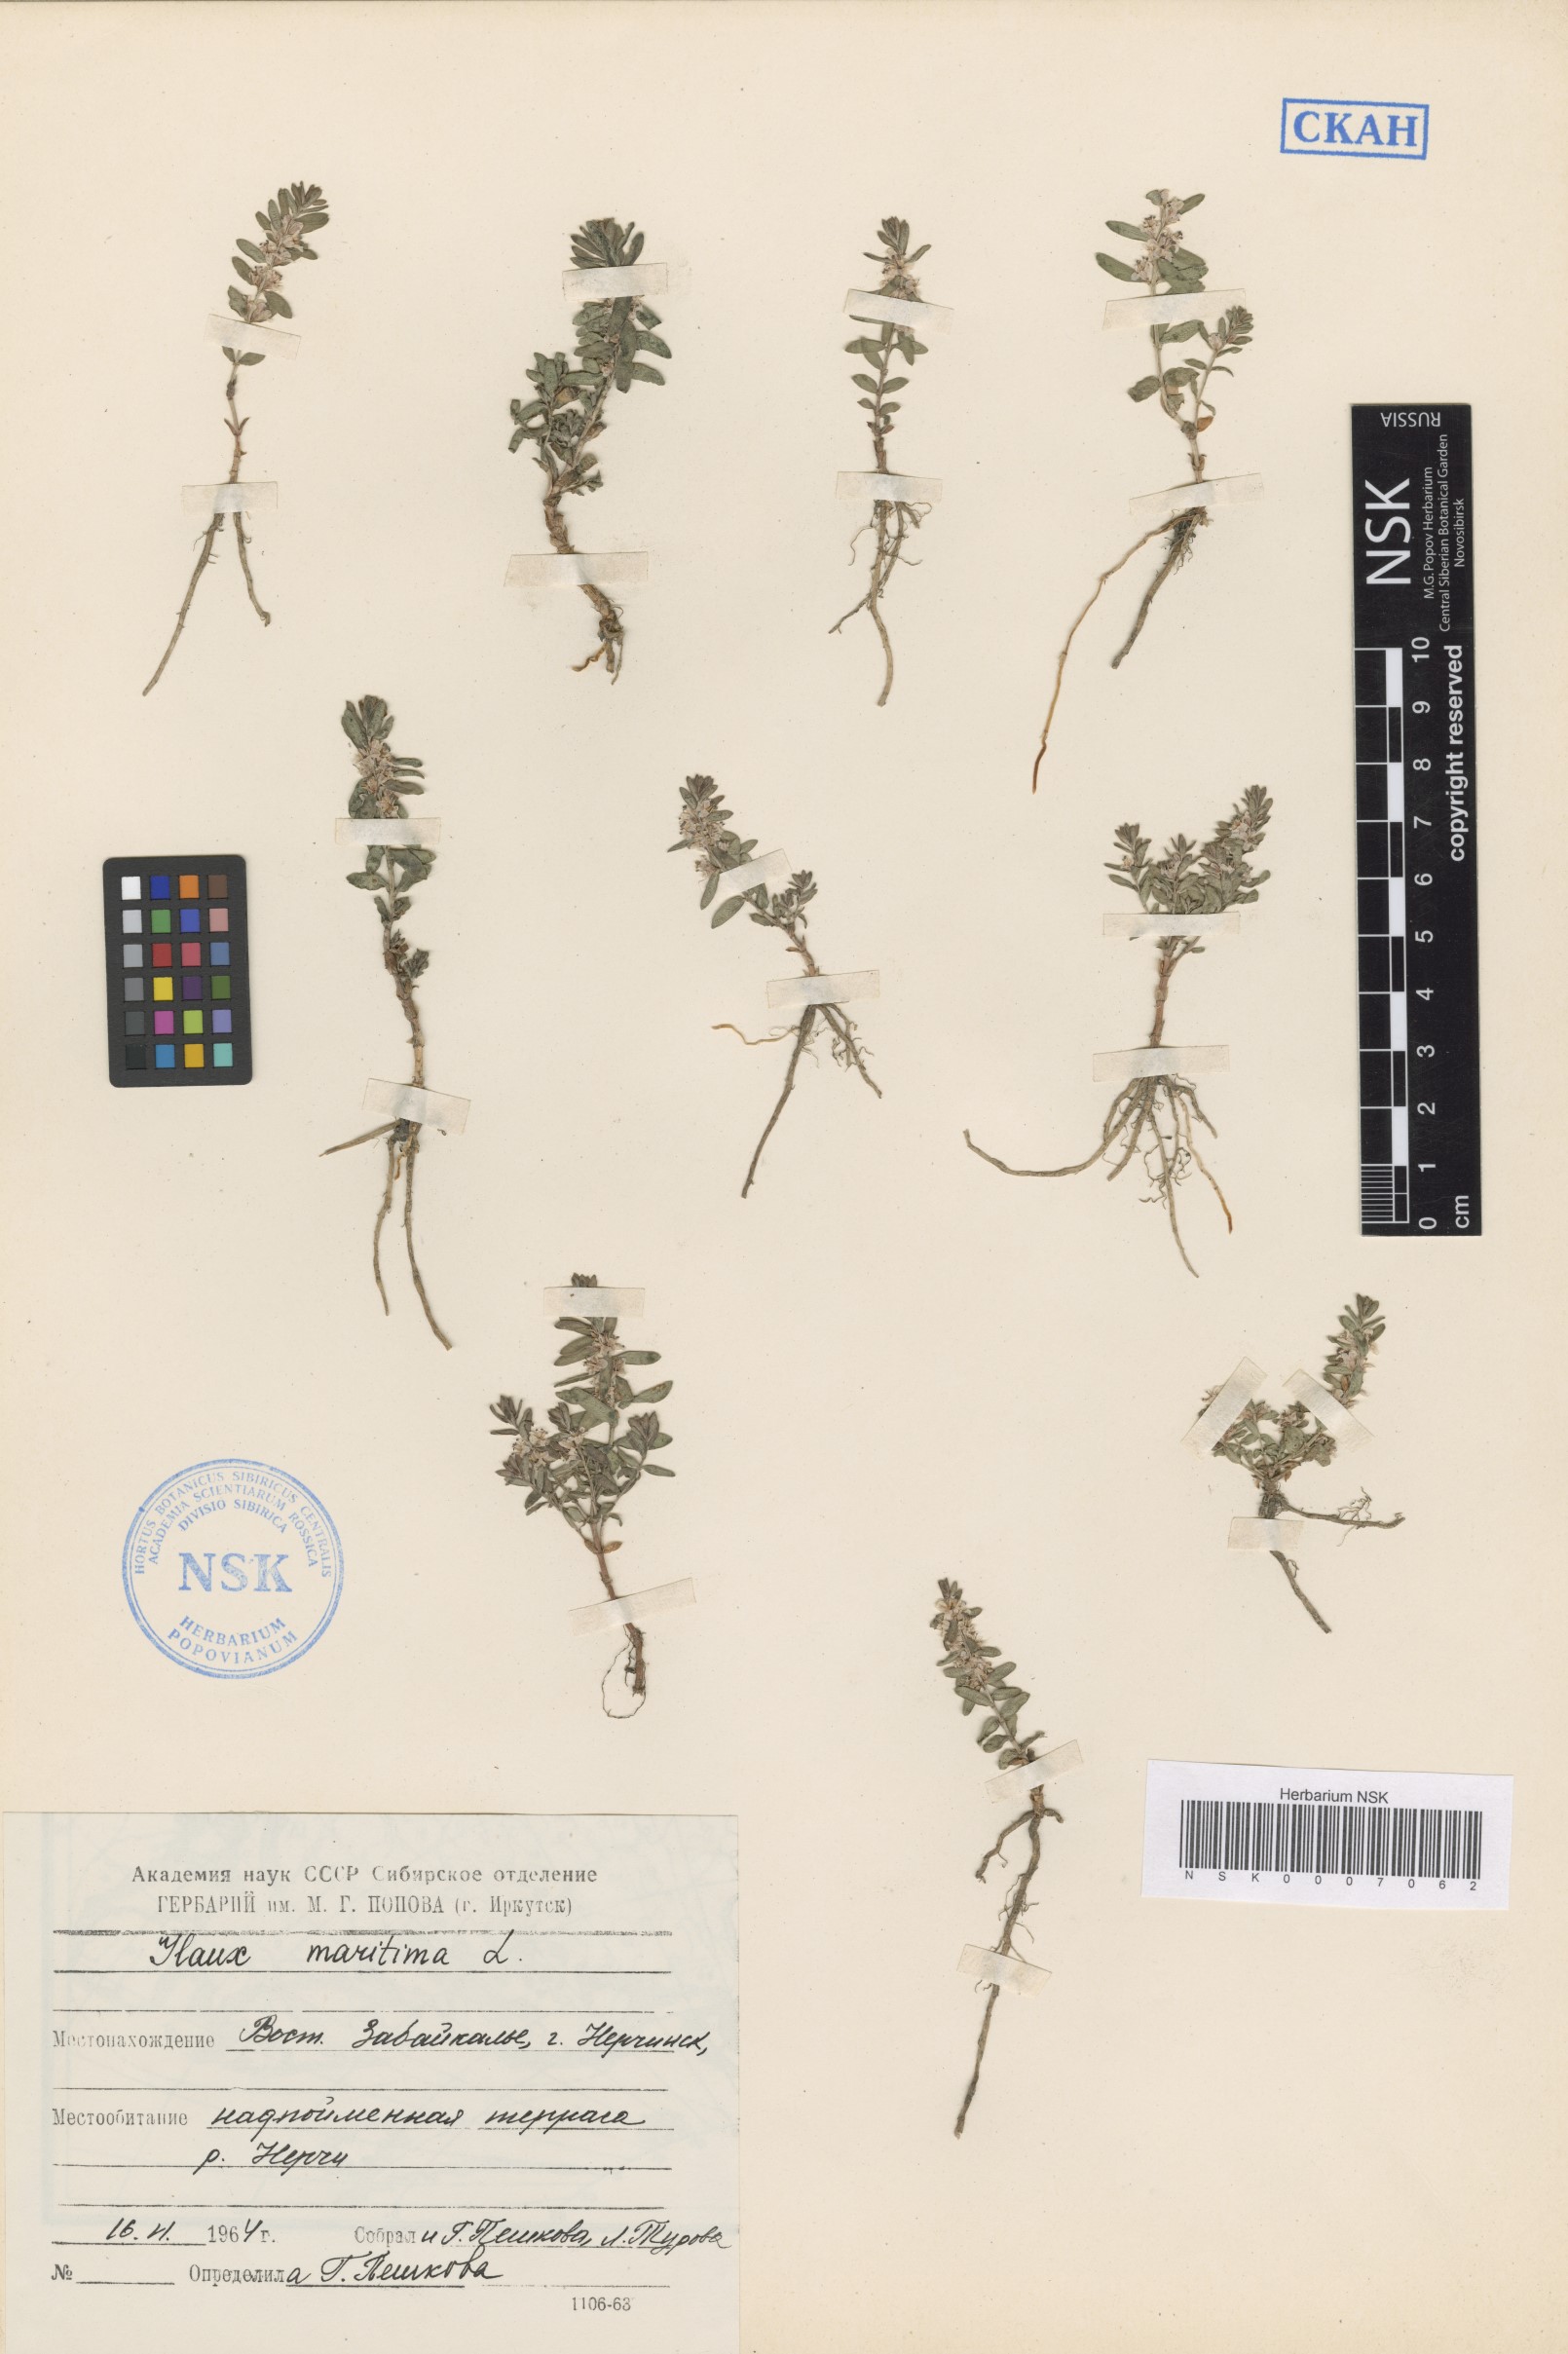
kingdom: Plantae
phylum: Tracheophyta
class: Magnoliopsida
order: Ericales
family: Primulaceae
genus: Lysimachia
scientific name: Lysimachia maritima
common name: Sea milkwort
